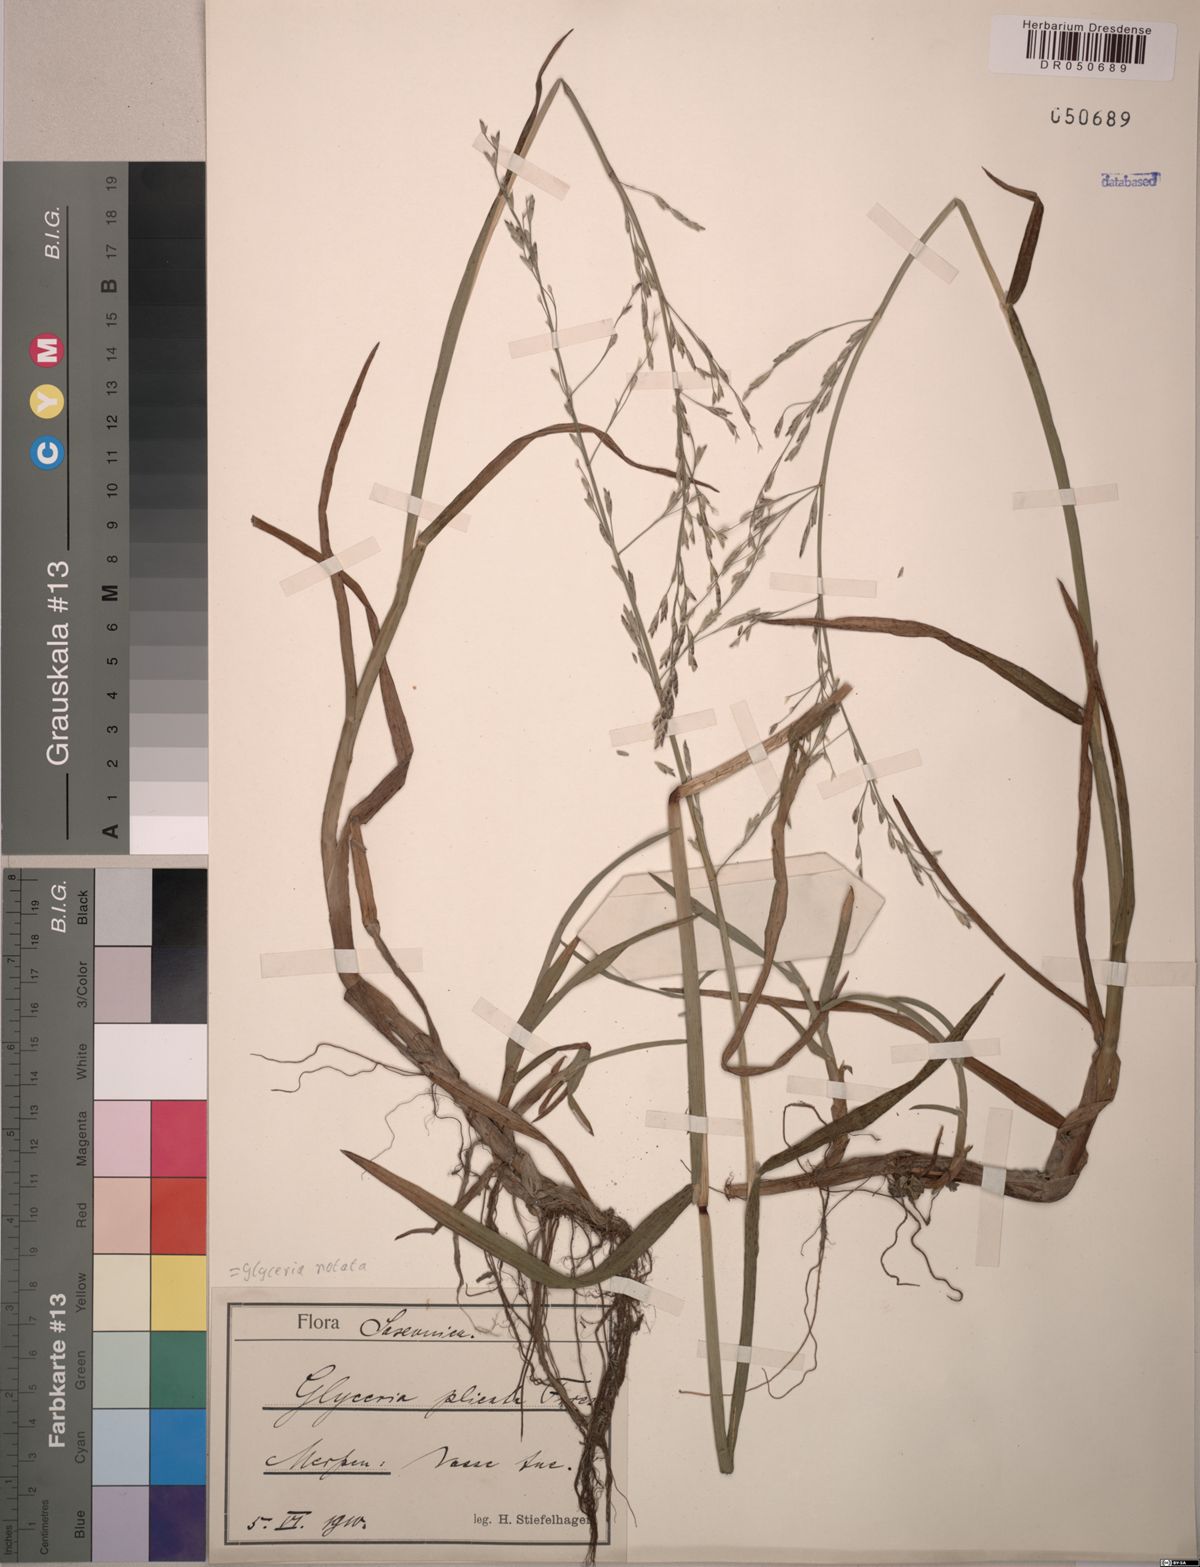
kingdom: Plantae
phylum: Tracheophyta
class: Liliopsida
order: Poales
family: Poaceae
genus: Glyceria
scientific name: Glyceria notata
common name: Plicate sweet-grass
